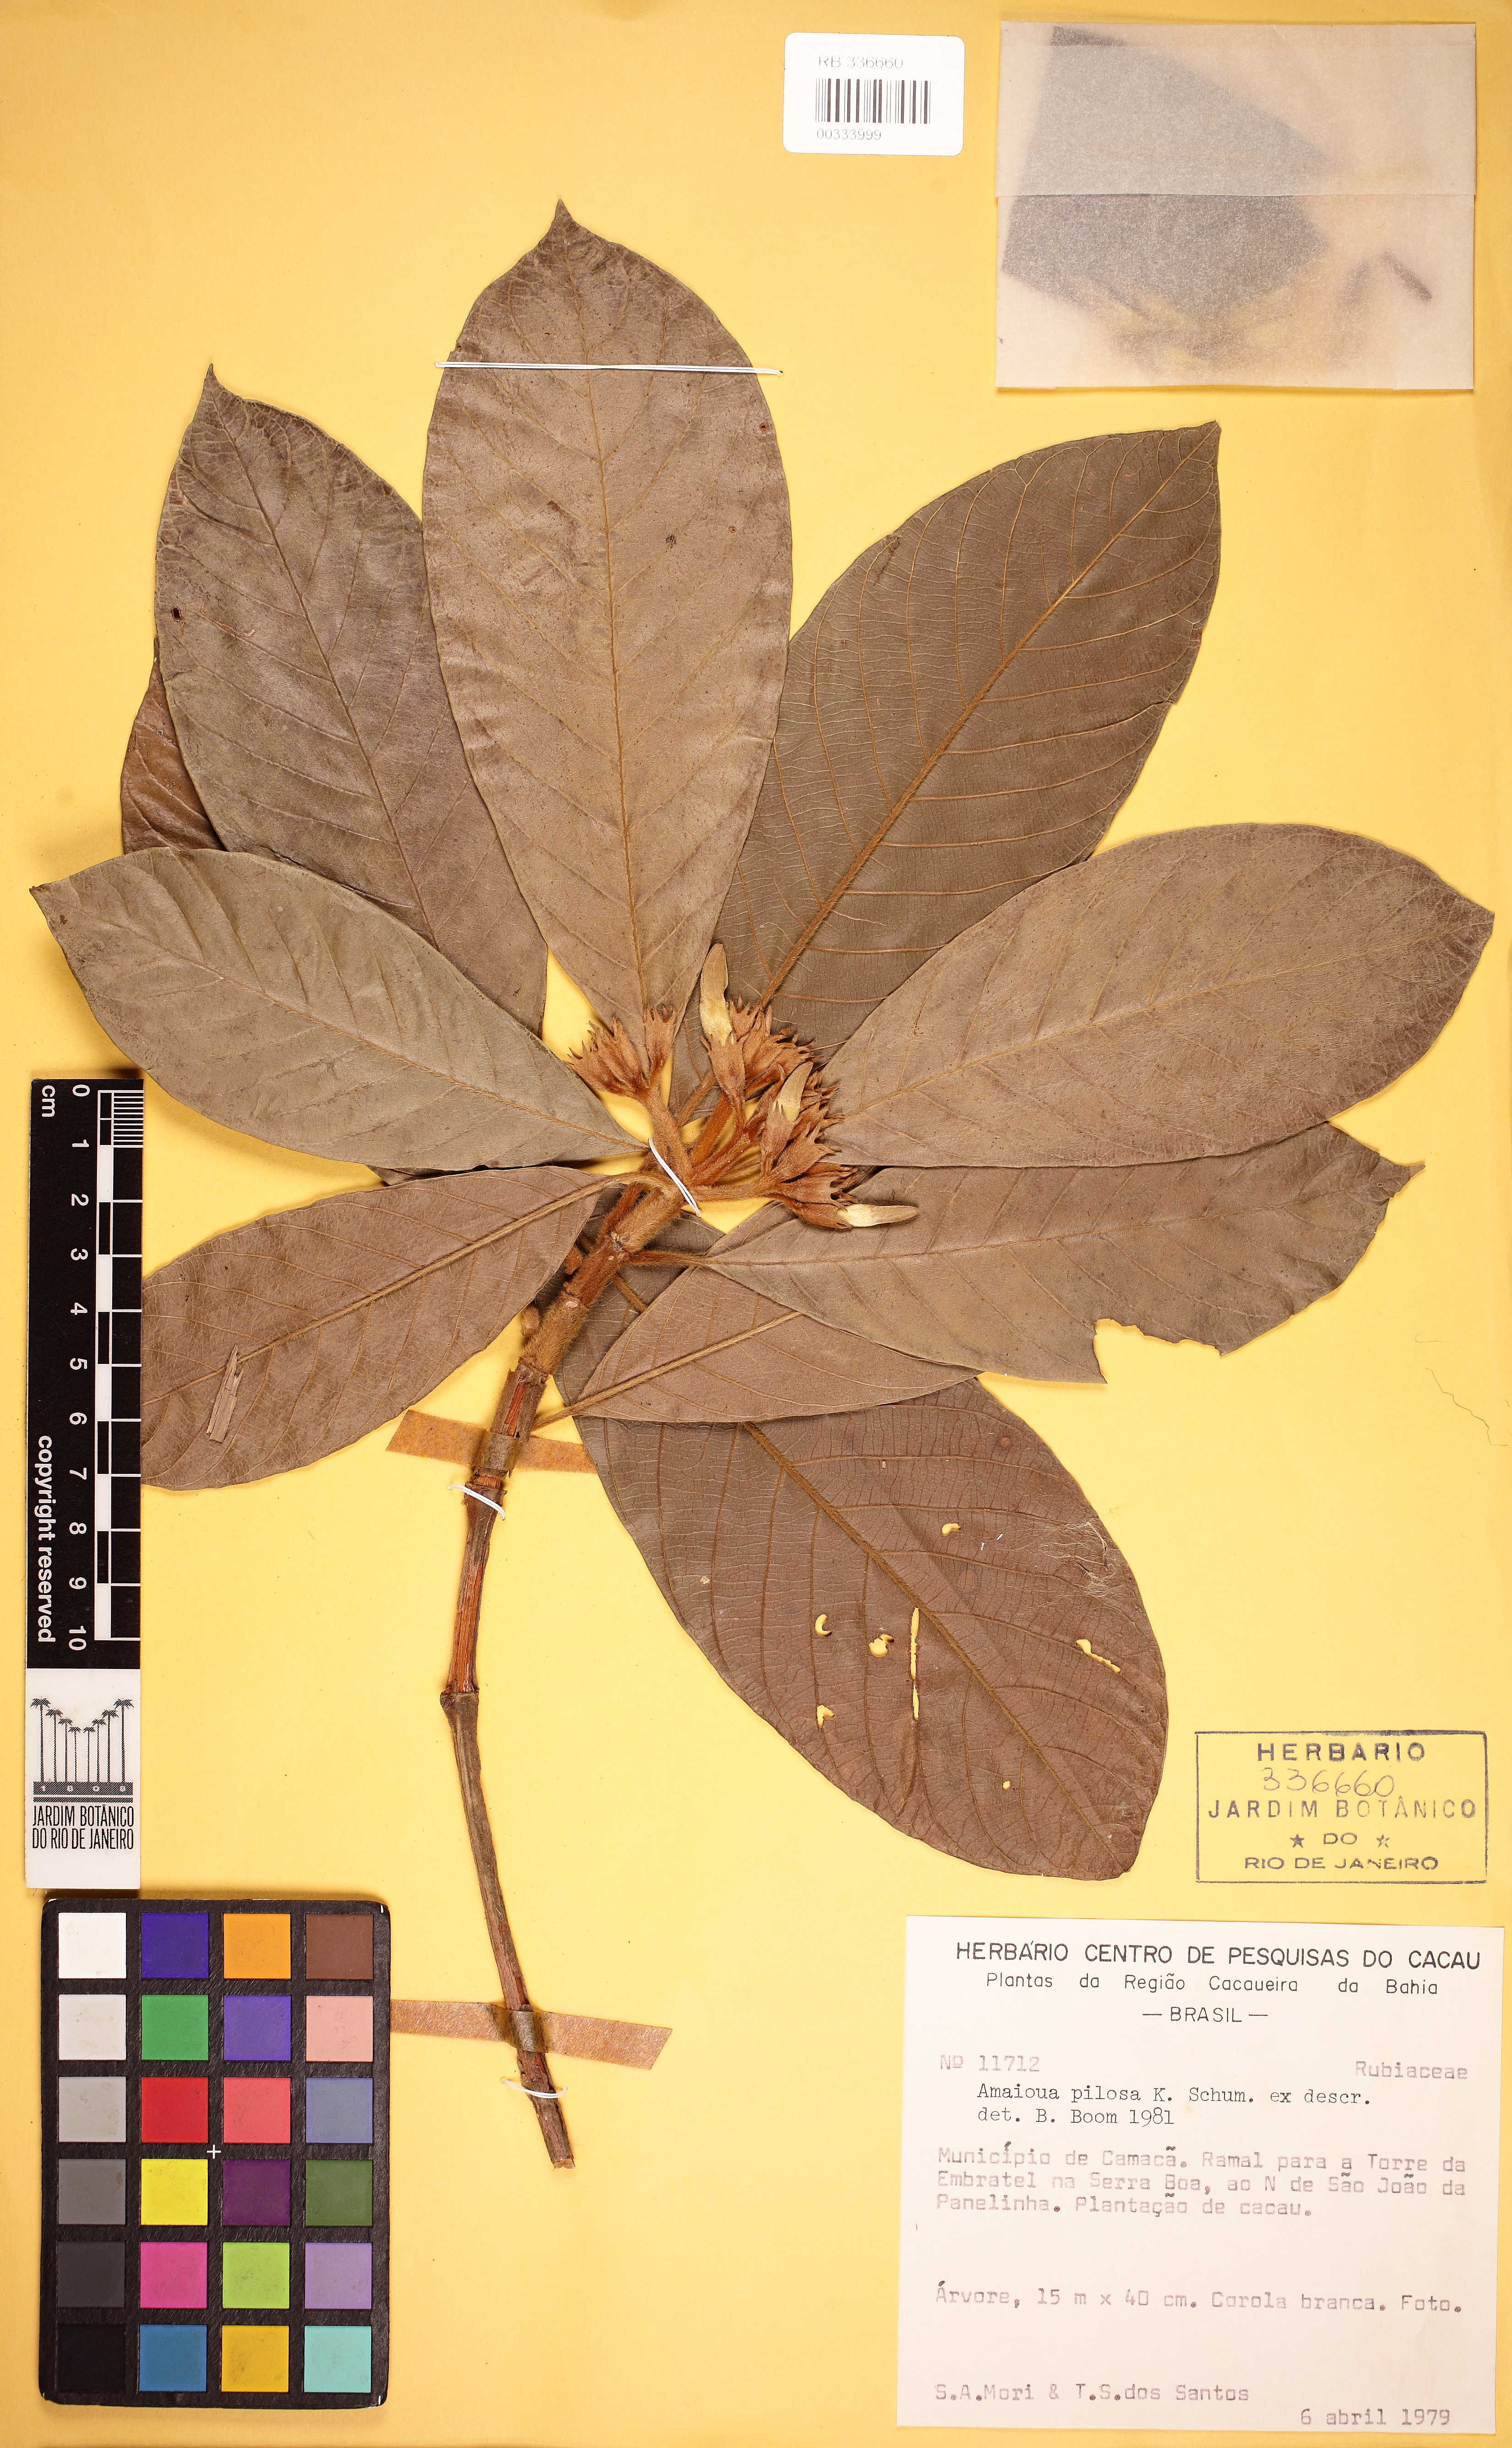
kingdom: Plantae
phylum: Tracheophyta
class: Magnoliopsida
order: Gentianales
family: Rubiaceae
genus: Duroia
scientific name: Duroia valesca
